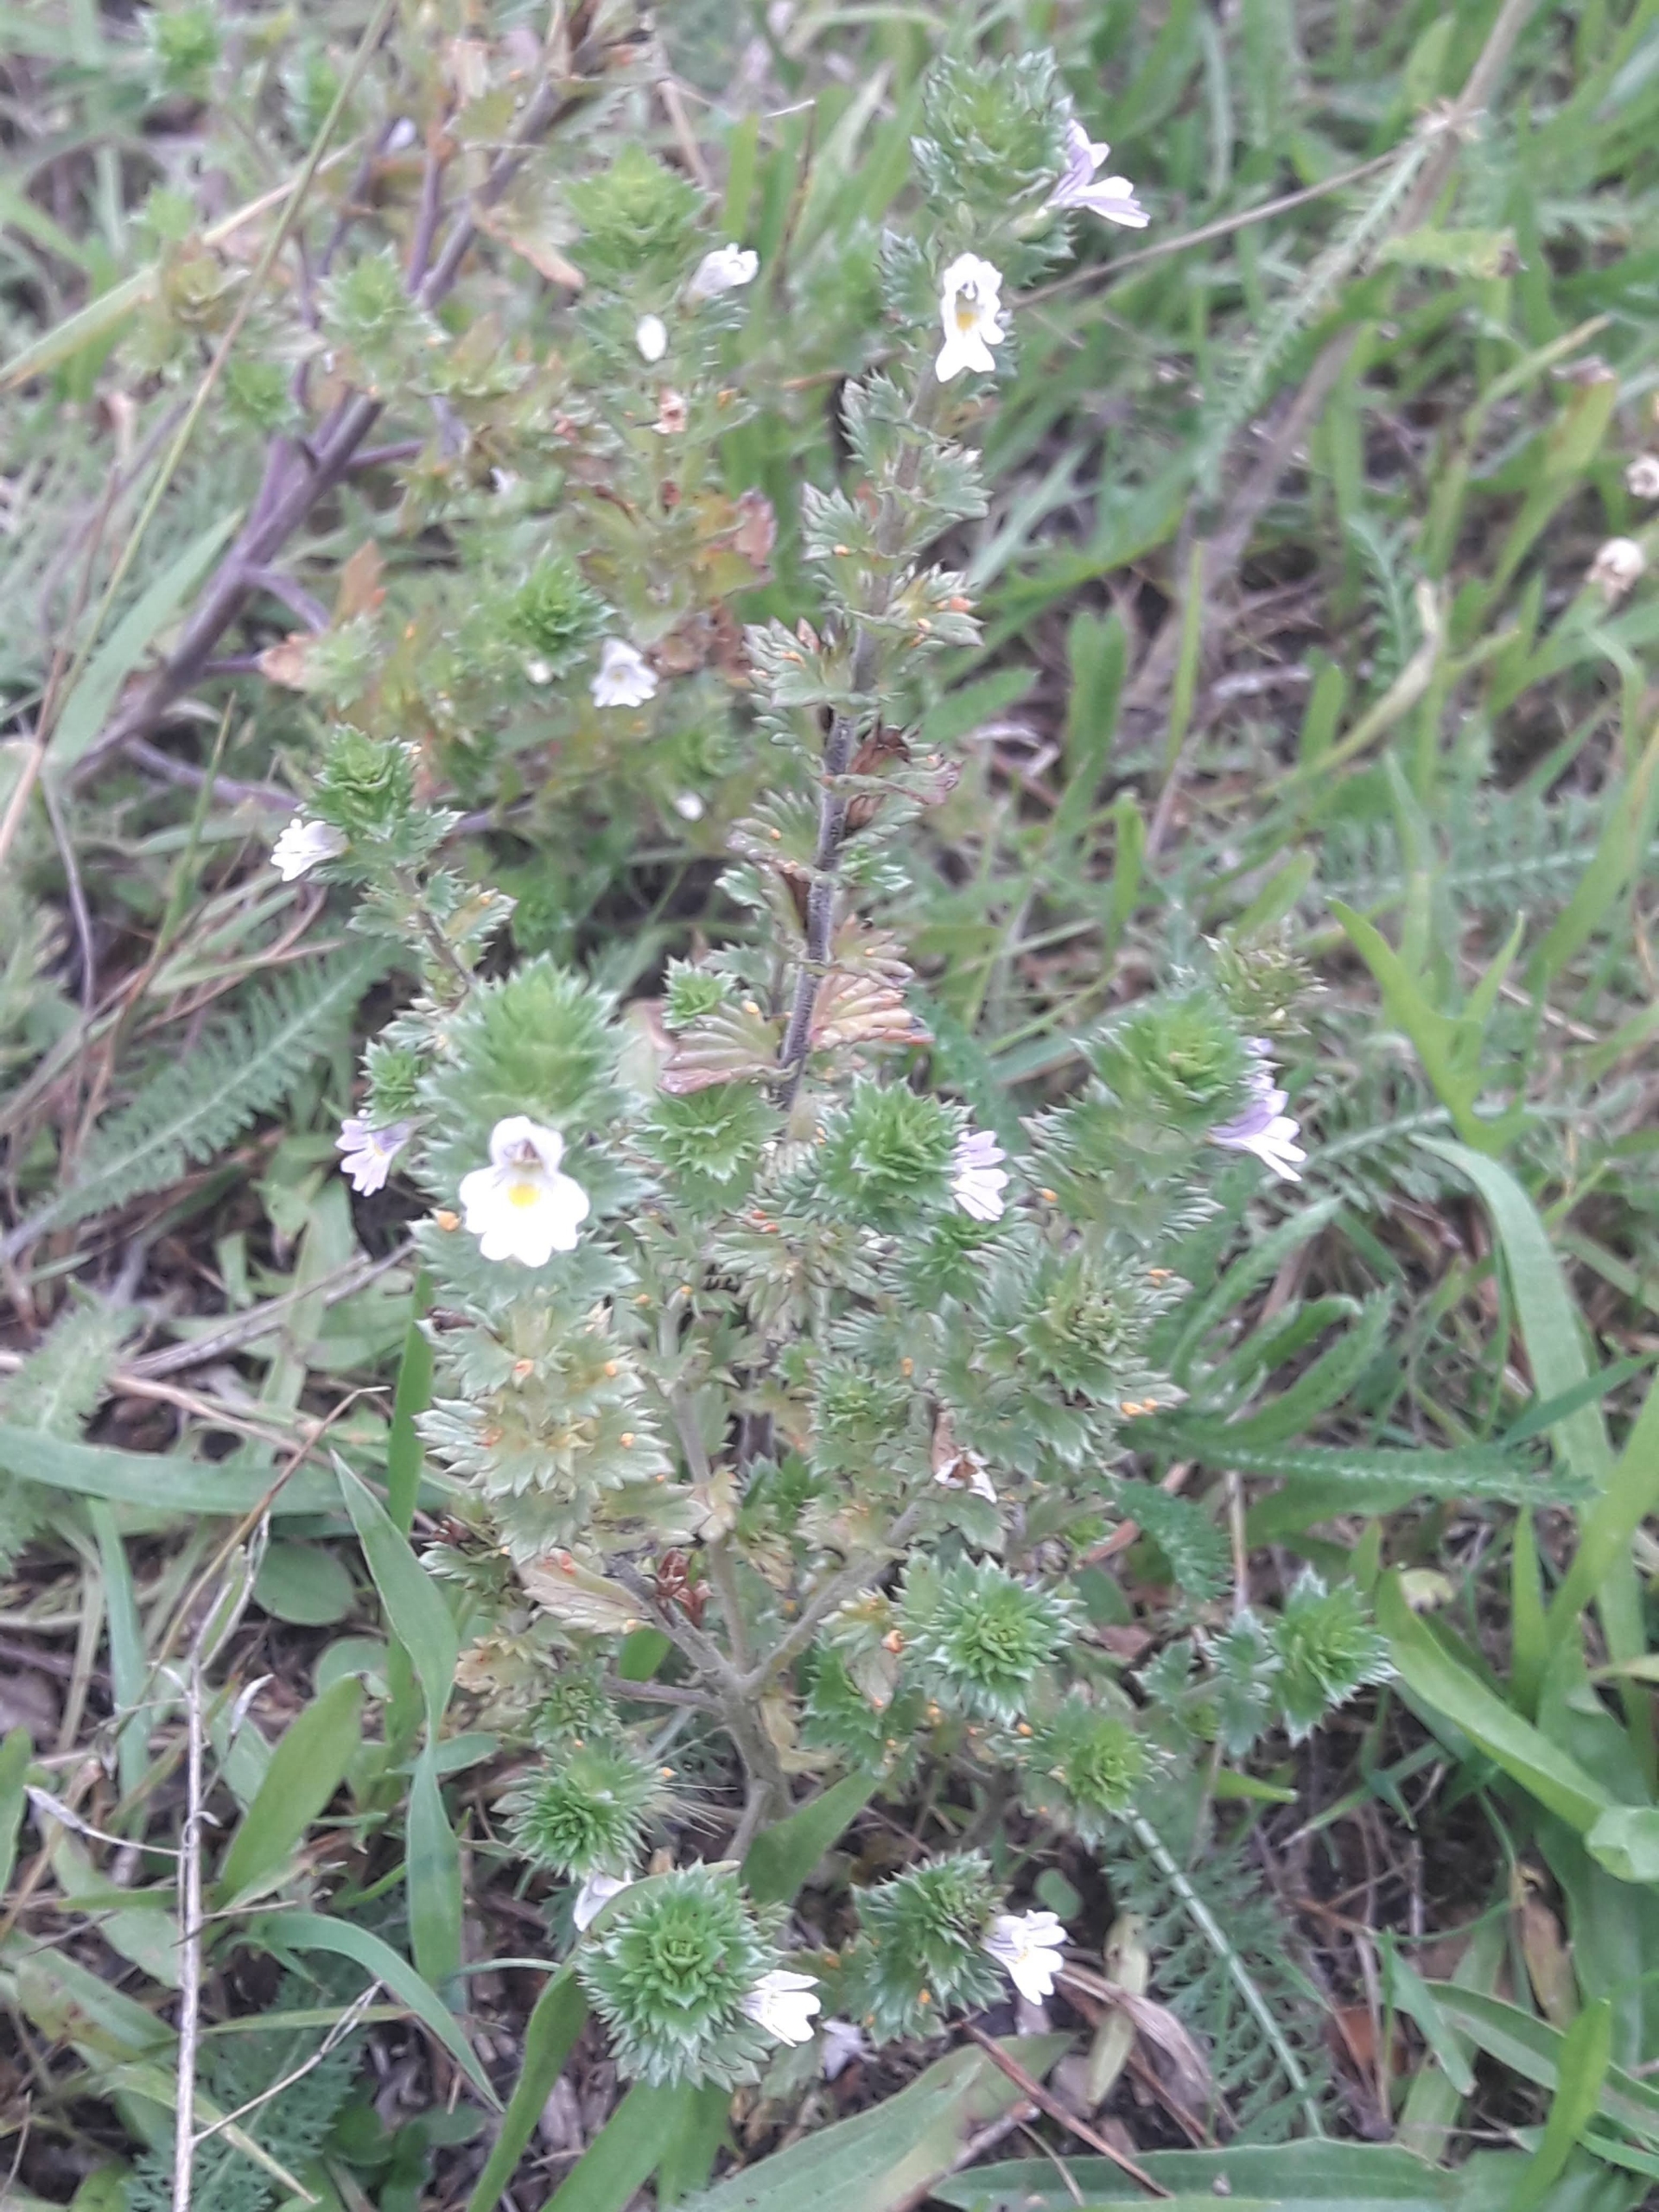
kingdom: Plantae
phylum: Tracheophyta
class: Magnoliopsida
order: Lamiales
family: Orobanchaceae
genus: Euphrasia
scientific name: Euphrasia stricta
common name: Spids øjentrøst
